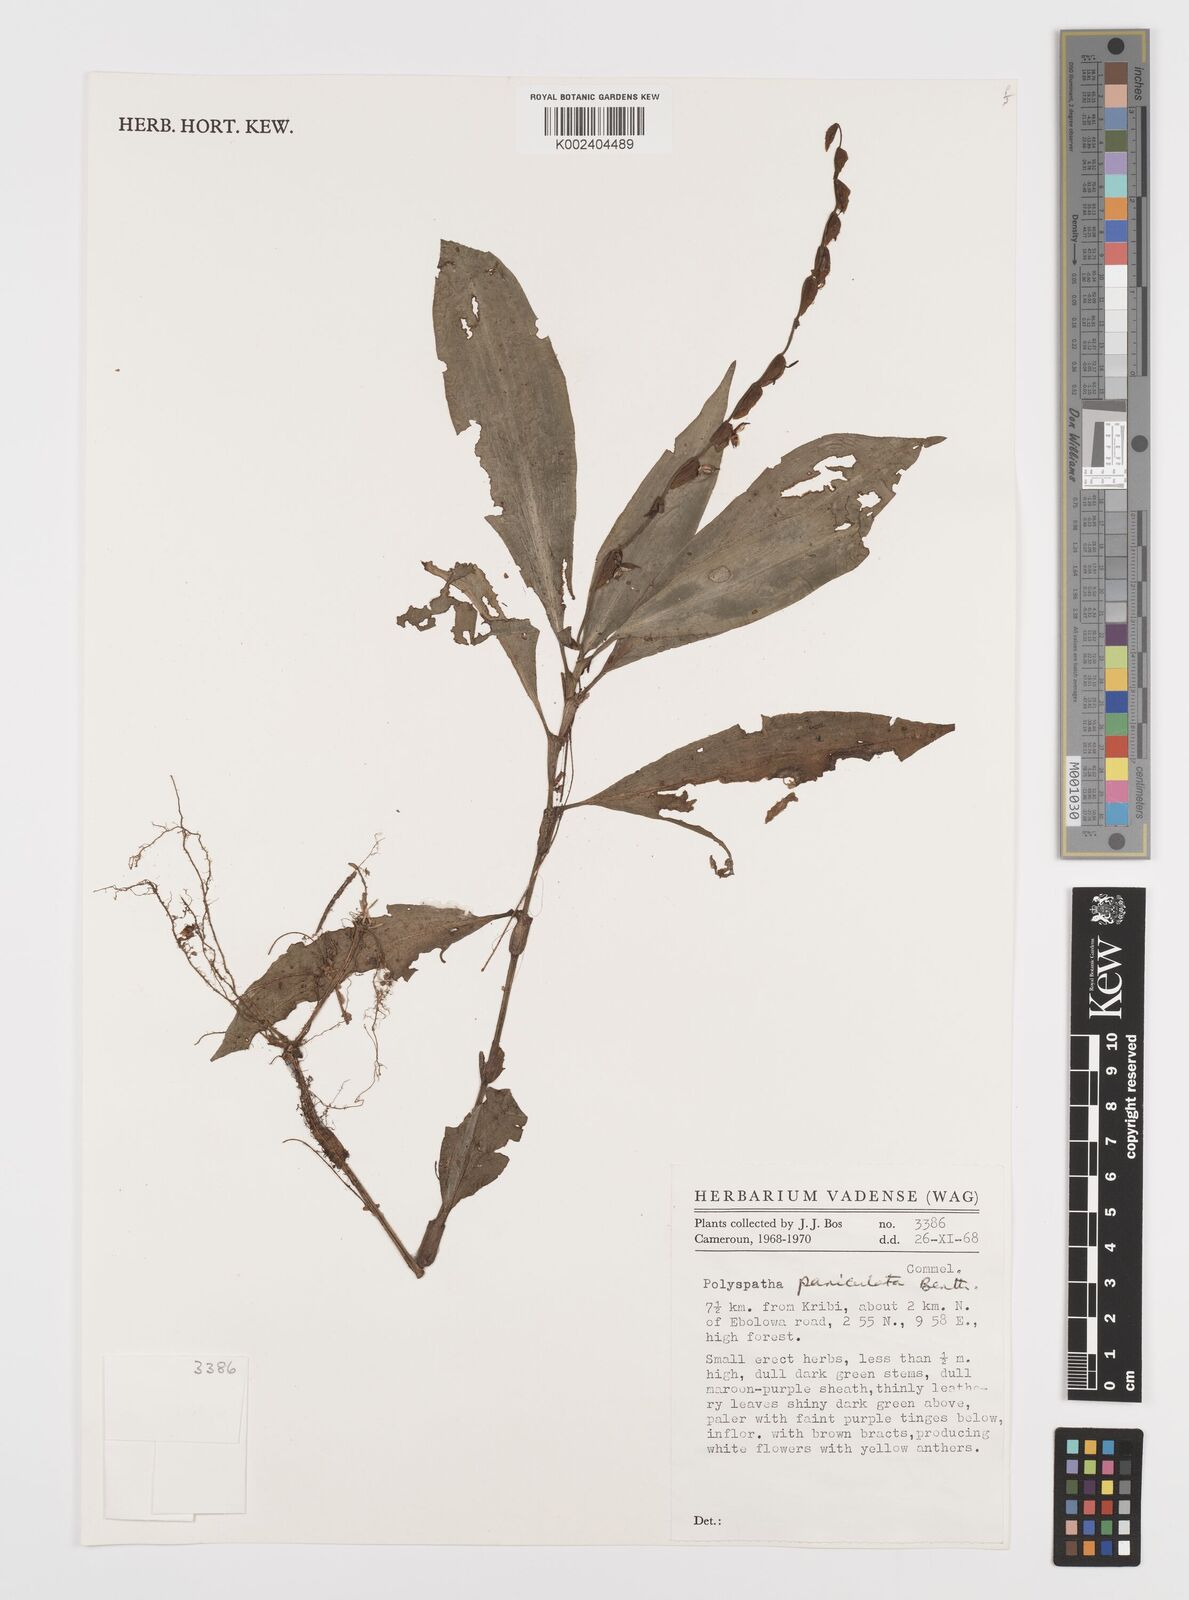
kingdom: Plantae
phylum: Tracheophyta
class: Liliopsida
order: Commelinales
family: Commelinaceae
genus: Polyspatha
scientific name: Polyspatha paniculata
